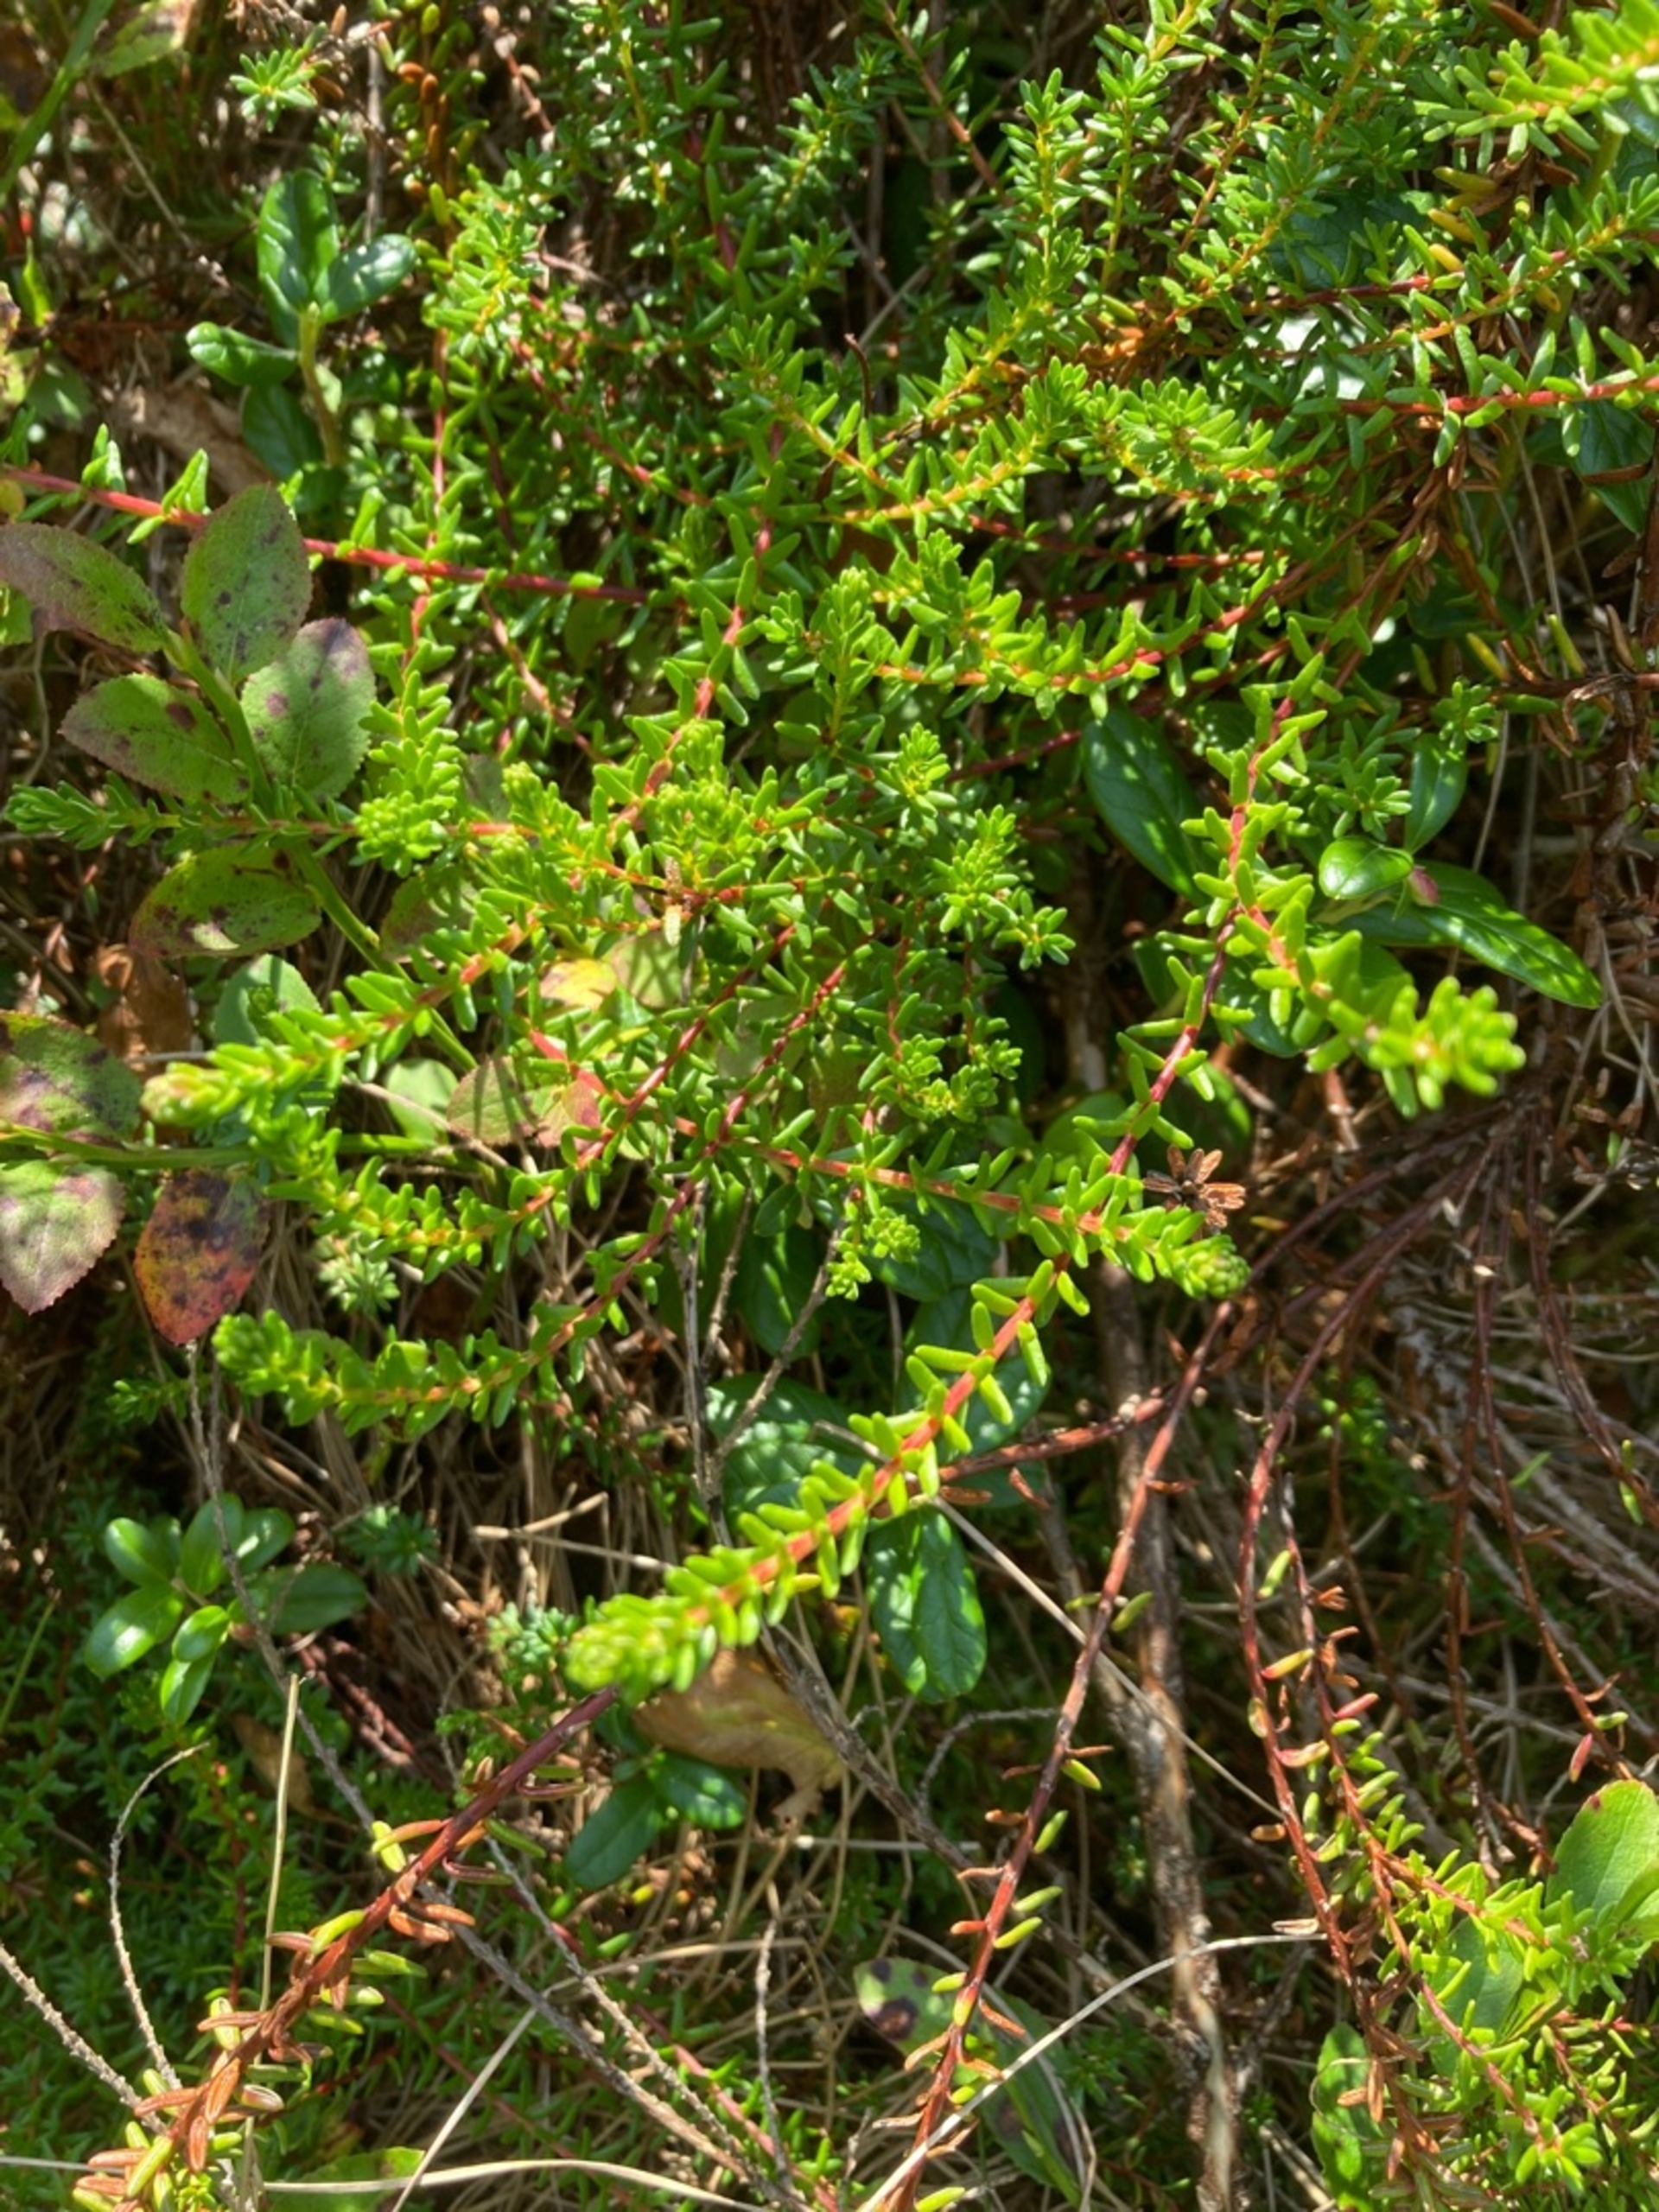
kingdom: Plantae
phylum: Tracheophyta
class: Magnoliopsida
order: Ericales
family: Ericaceae
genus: Empetrum
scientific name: Empetrum nigrum
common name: Revling
